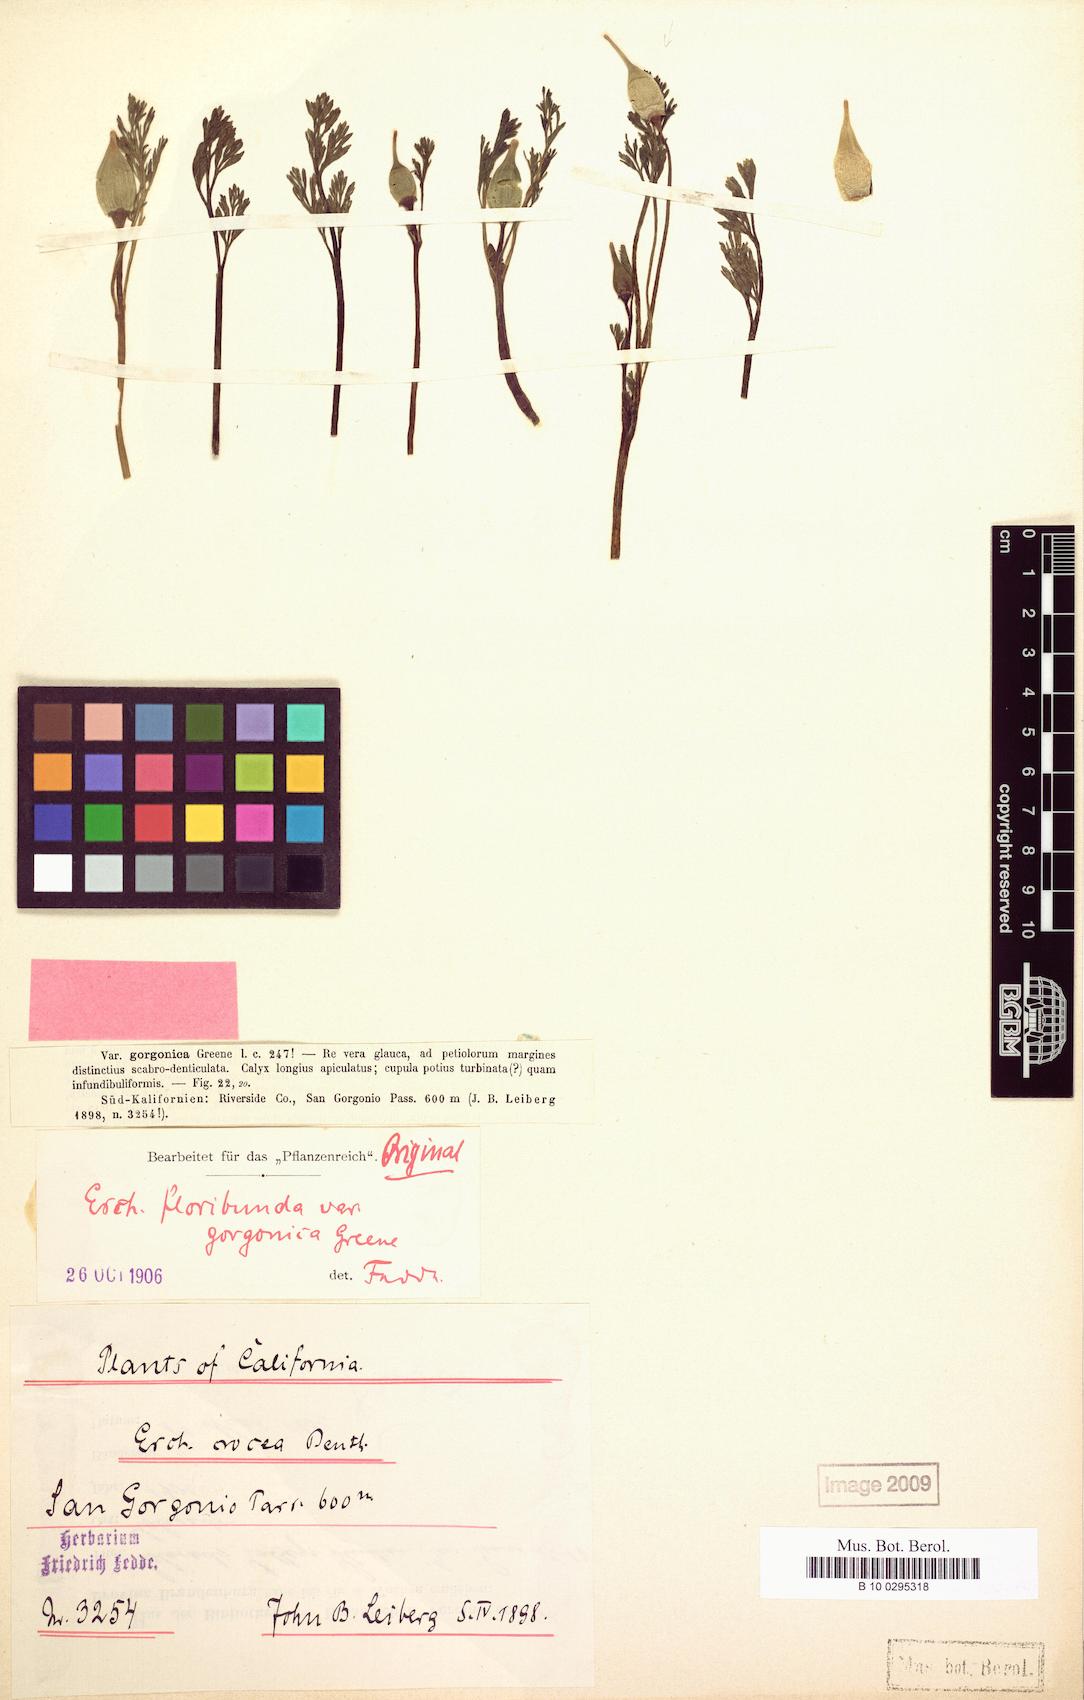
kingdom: Plantae
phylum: Tracheophyta
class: Magnoliopsida
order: Ranunculales
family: Papaveraceae
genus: Eschscholzia
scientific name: Eschscholzia californica
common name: California poppy
